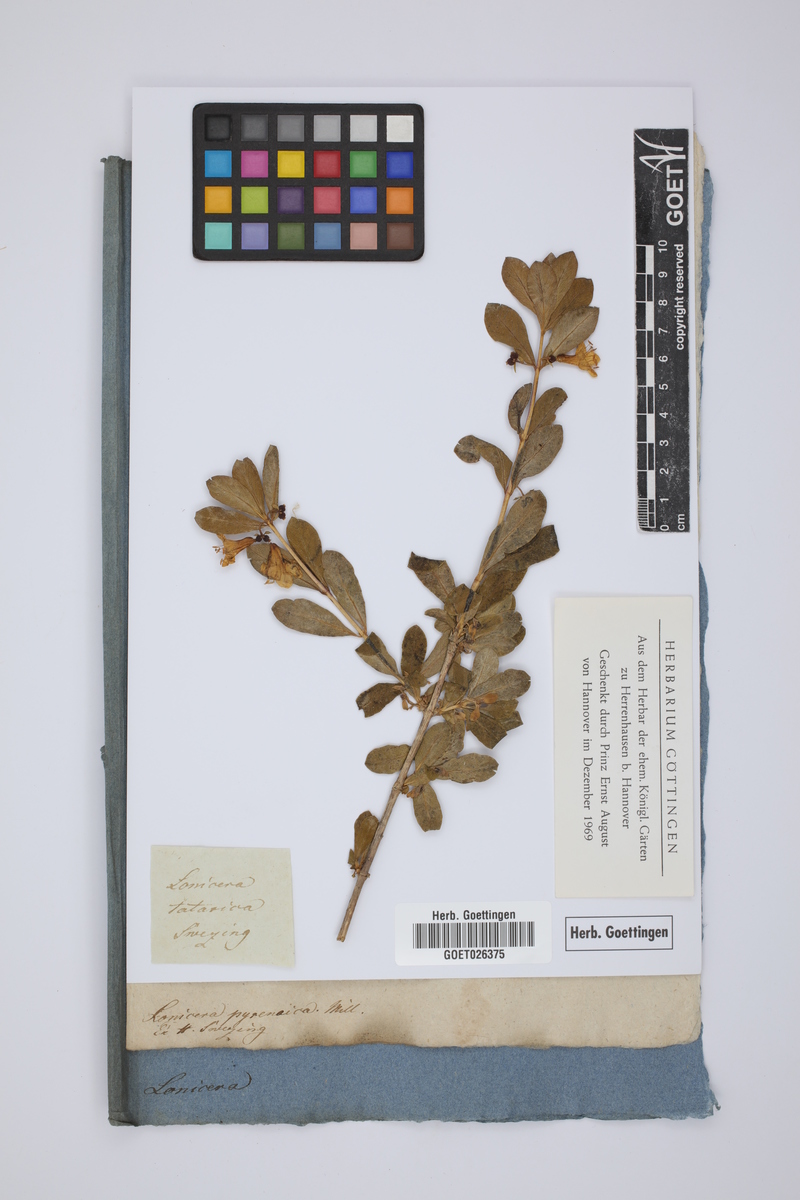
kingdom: Plantae
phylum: Tracheophyta
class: Magnoliopsida
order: Dipsacales
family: Caprifoliaceae
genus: Lonicera
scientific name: Lonicera tatarica
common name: Tatarian honeysuckle
